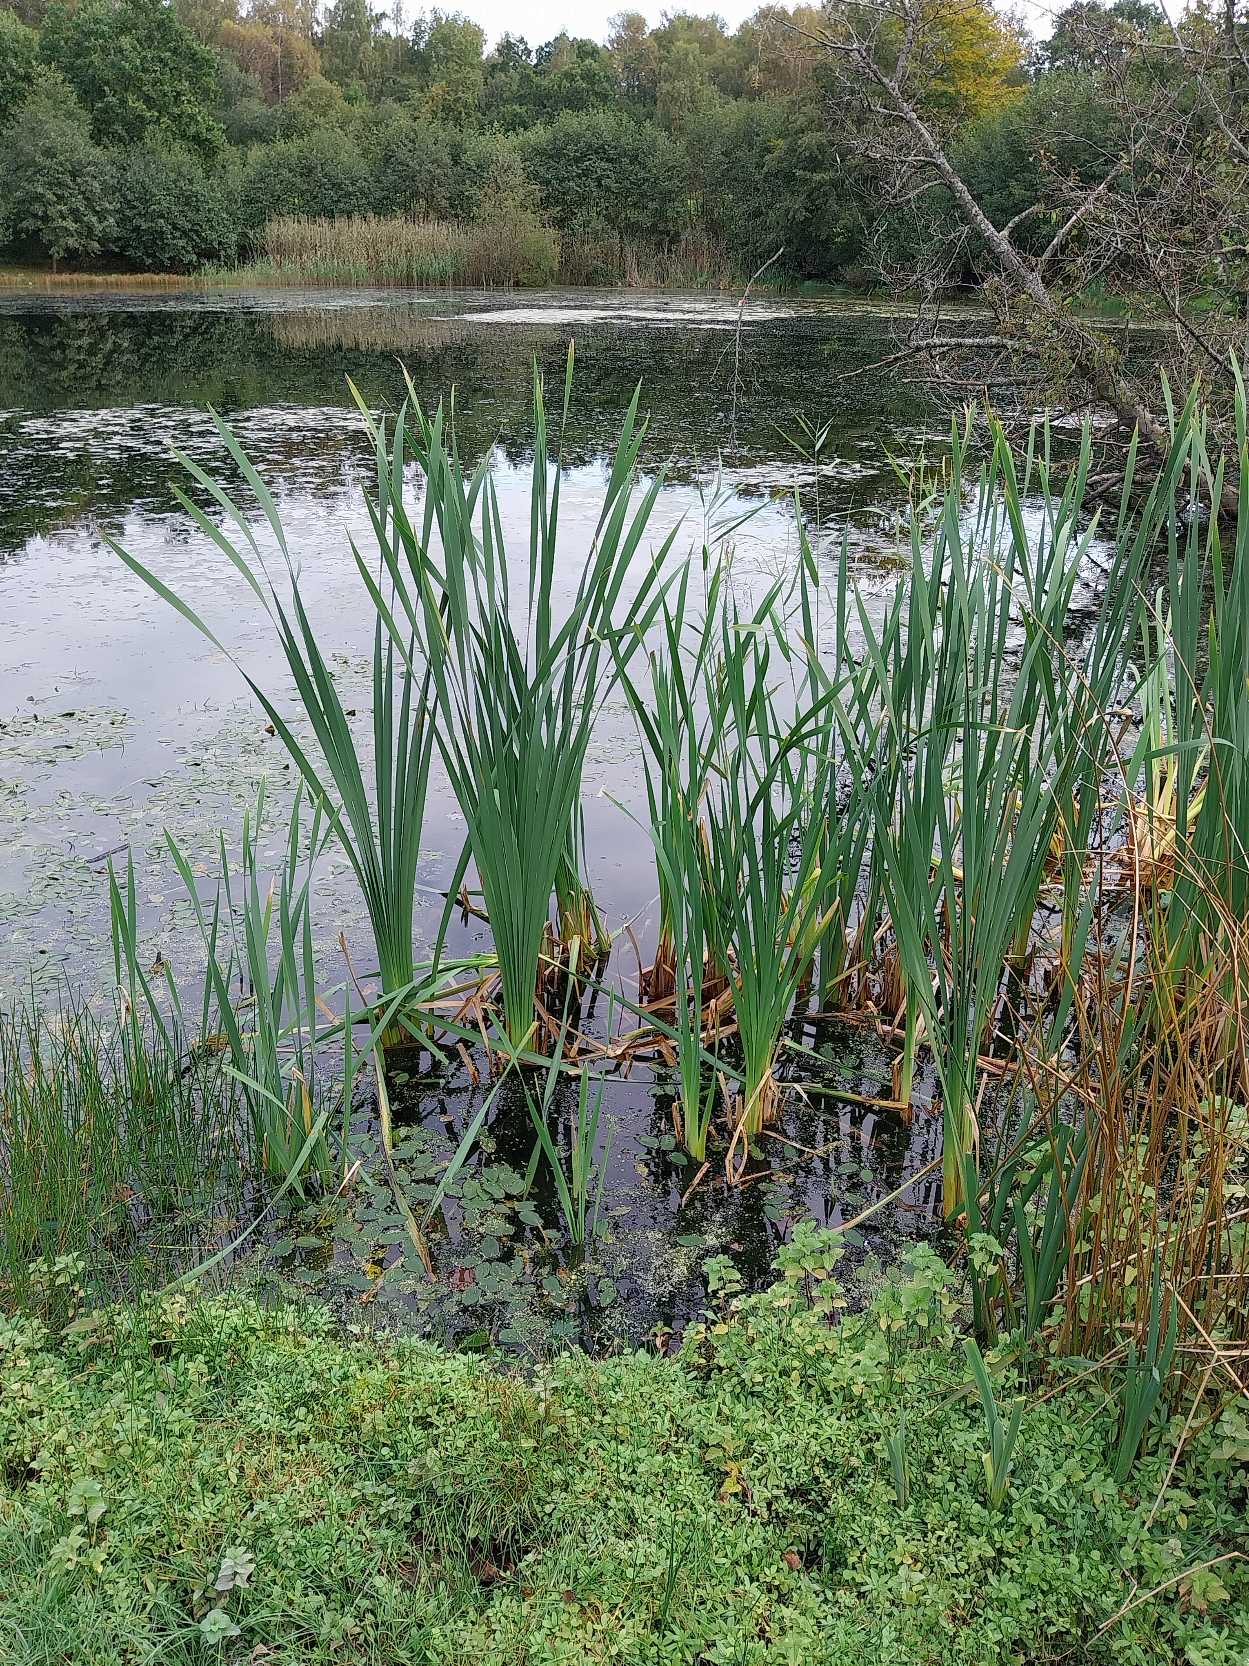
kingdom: Plantae
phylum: Tracheophyta
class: Liliopsida
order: Poales
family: Typhaceae
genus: Typha
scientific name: Typha latifolia
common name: Bredbladet dunhammer
